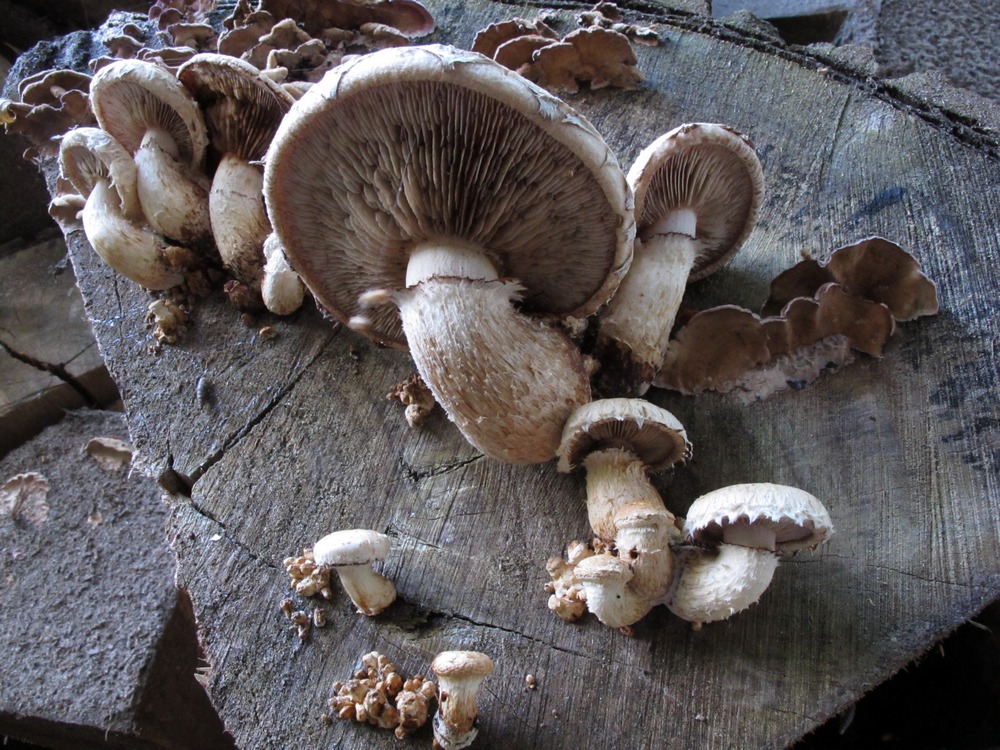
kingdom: Fungi
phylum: Basidiomycota
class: Agaricomycetes
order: Agaricales
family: Strophariaceae
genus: Pholiota
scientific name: Pholiota populnea
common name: poppel-kæmpeskælhat
